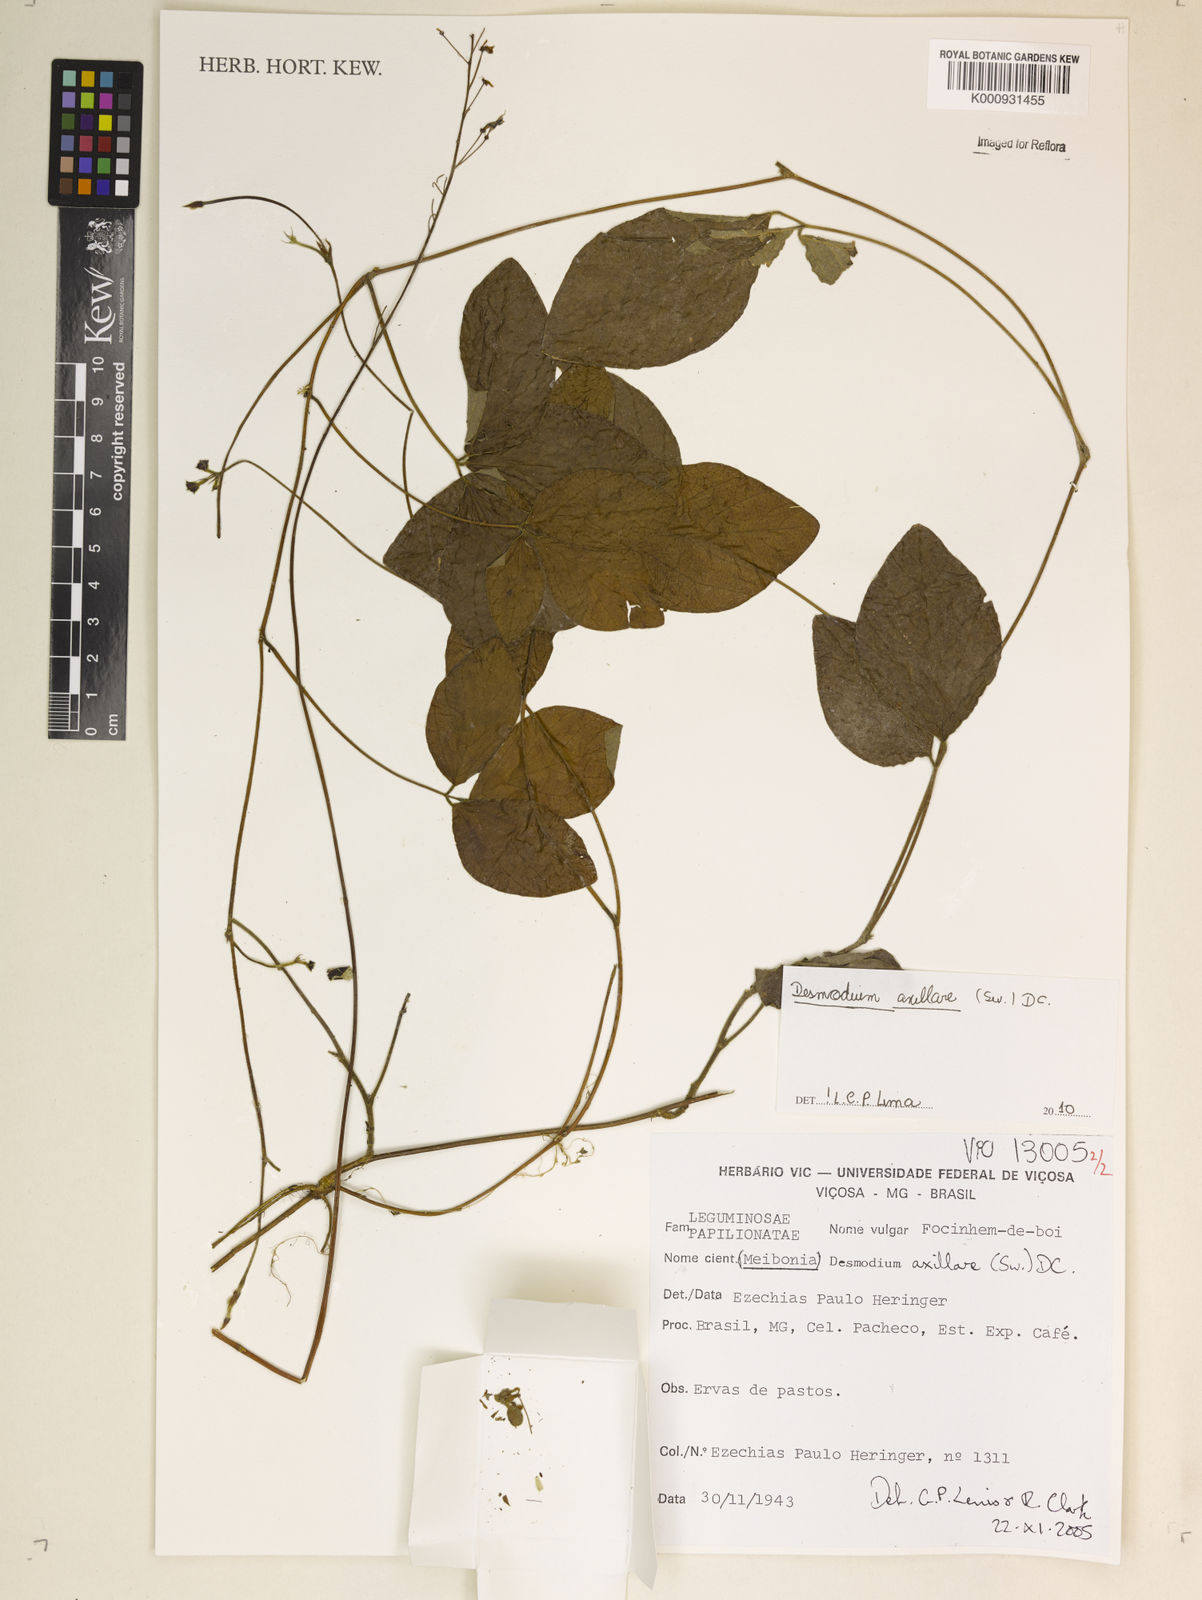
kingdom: Plantae
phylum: Tracheophyta
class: Magnoliopsida
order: Fabales
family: Fabaceae
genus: Desmodium
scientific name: Desmodium axillare
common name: Wire with
